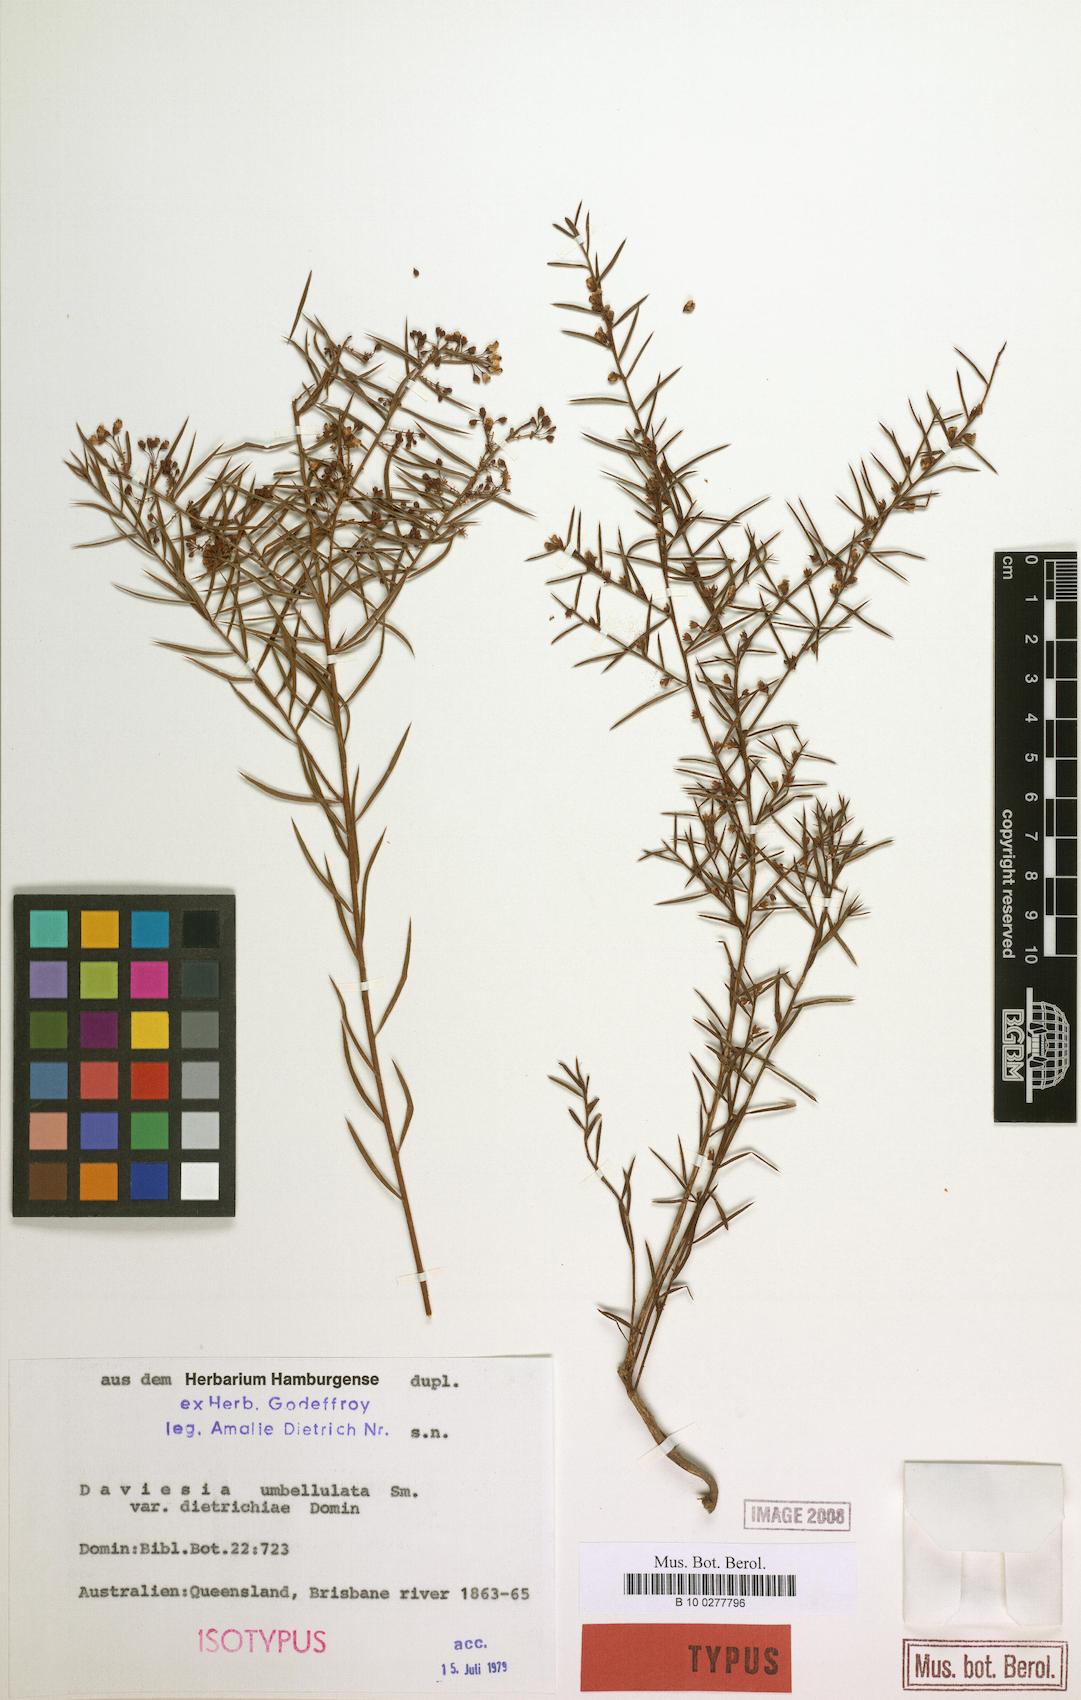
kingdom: Plantae
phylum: Tracheophyta
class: Magnoliopsida
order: Fabales
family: Fabaceae
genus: Daviesia
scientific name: Daviesia umbellulata
